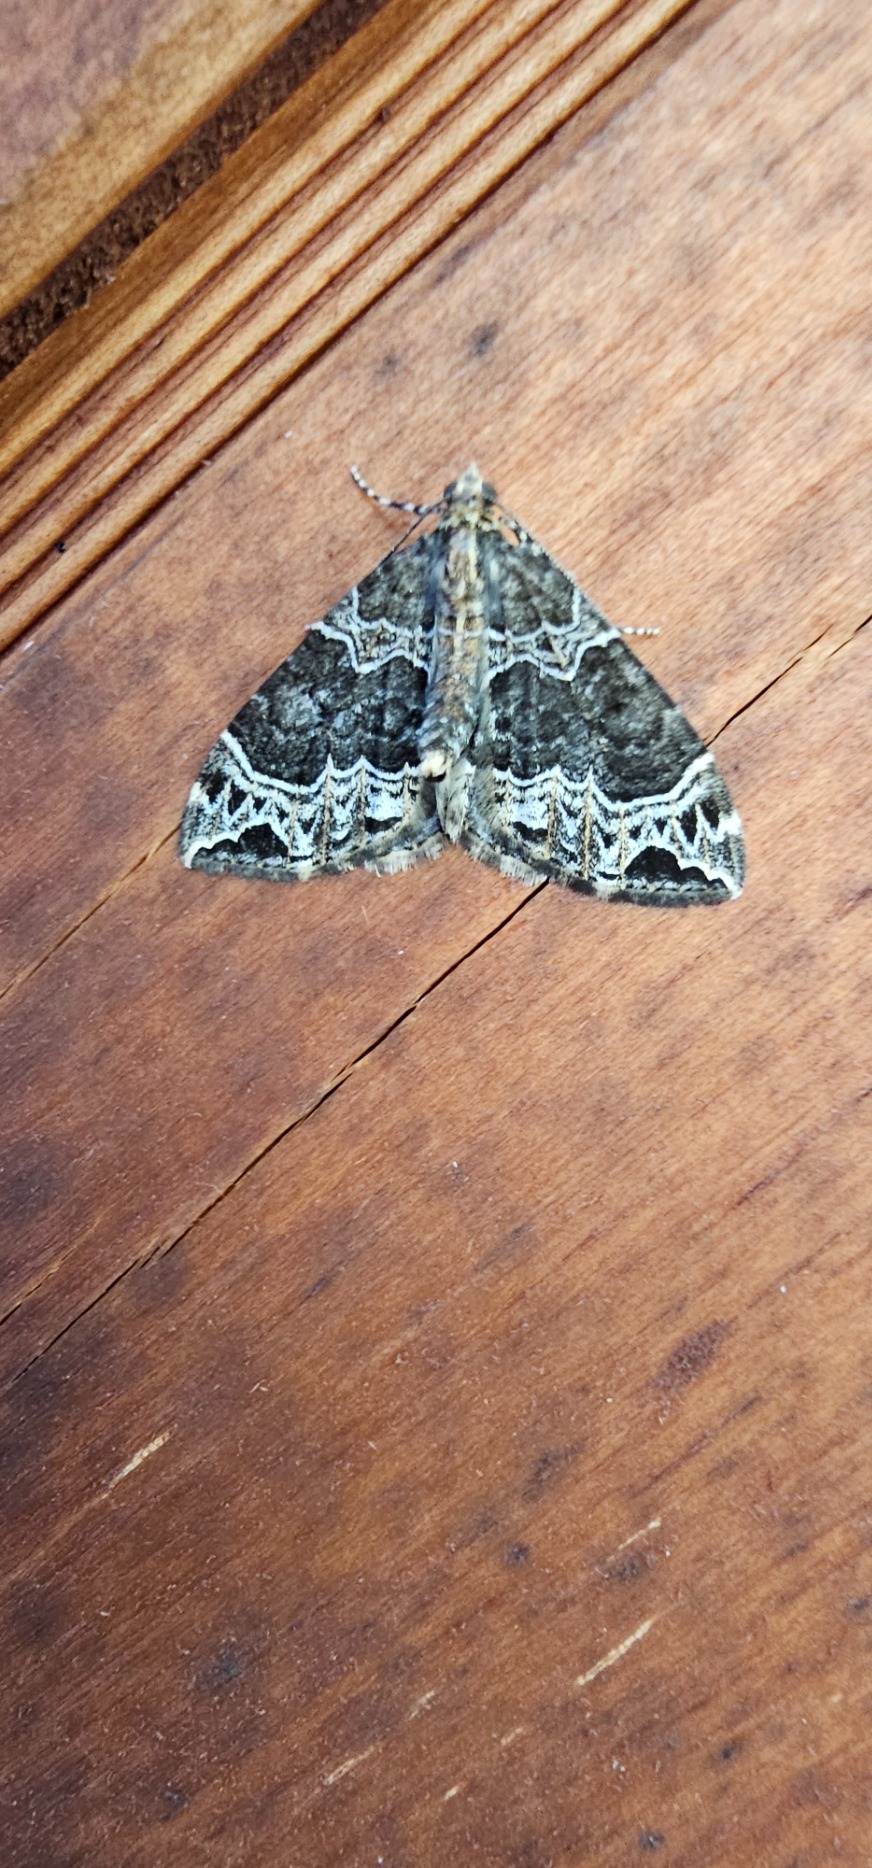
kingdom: Animalia
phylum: Arthropoda
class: Insecta
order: Lepidoptera
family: Geometridae
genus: Ecliptopera
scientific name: Ecliptopera silaceata
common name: Dueurt-bladmåler
